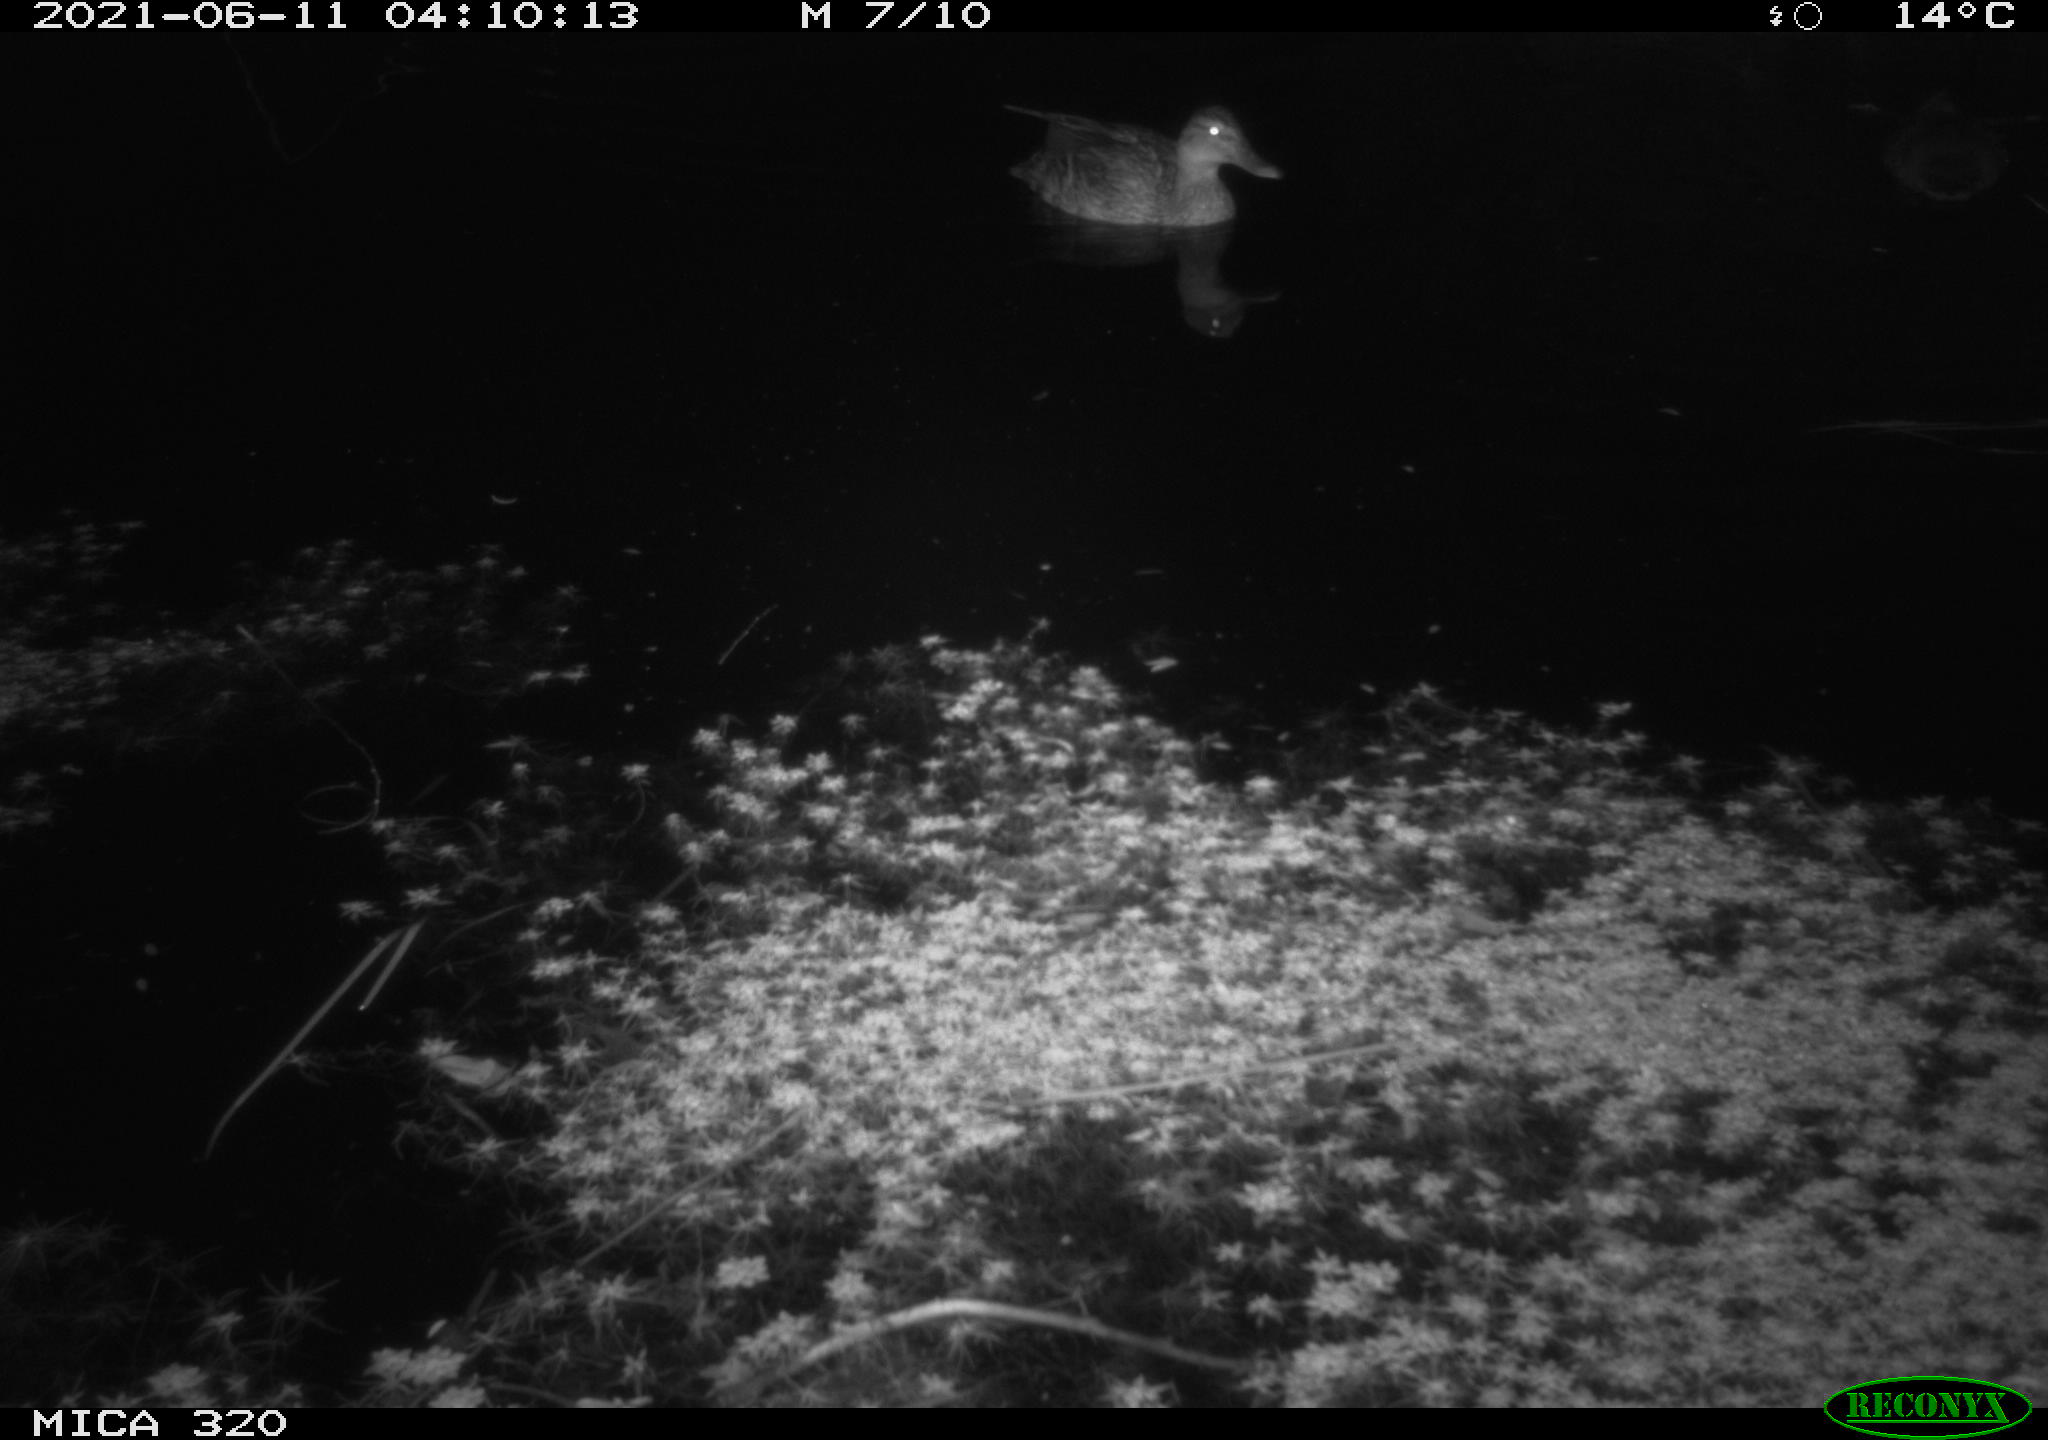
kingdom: Animalia
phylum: Chordata
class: Aves
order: Anseriformes
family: Anatidae
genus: Anas
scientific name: Anas platyrhynchos
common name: Mallard
